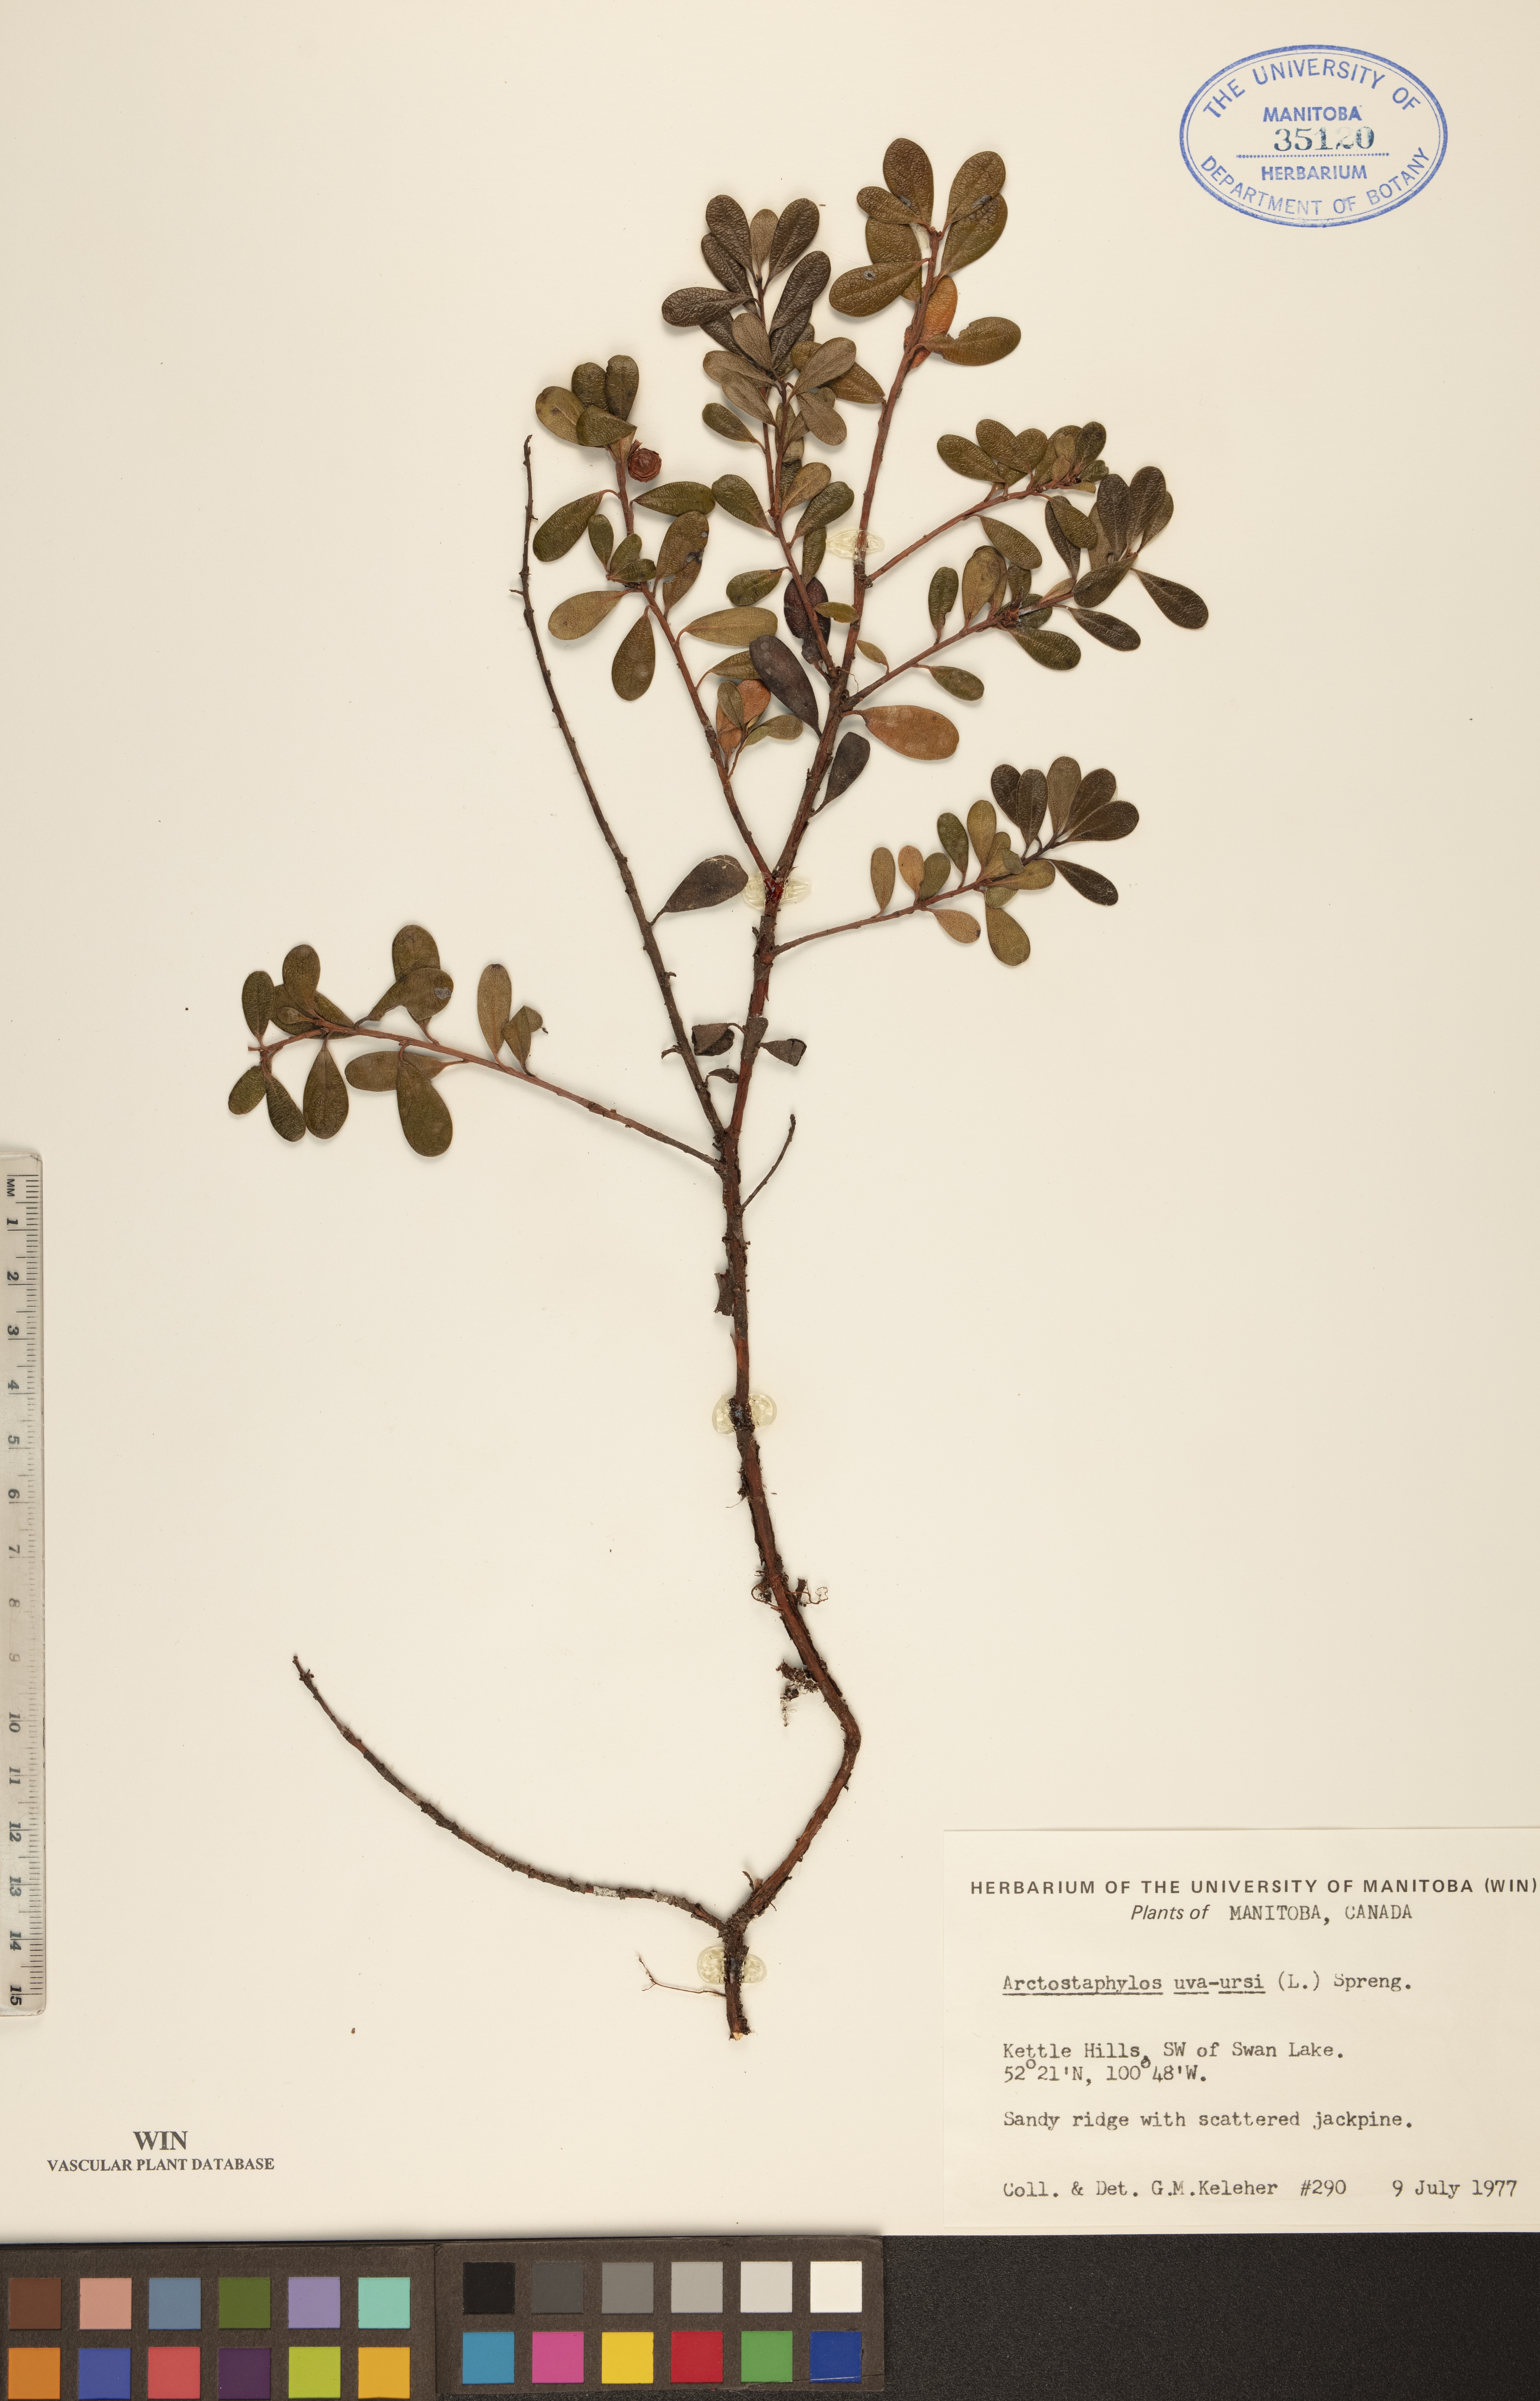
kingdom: Plantae
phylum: Tracheophyta
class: Magnoliopsida
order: Ericales
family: Ericaceae
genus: Arctostaphylos
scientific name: Arctostaphylos uva-ursi
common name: Bearberry
